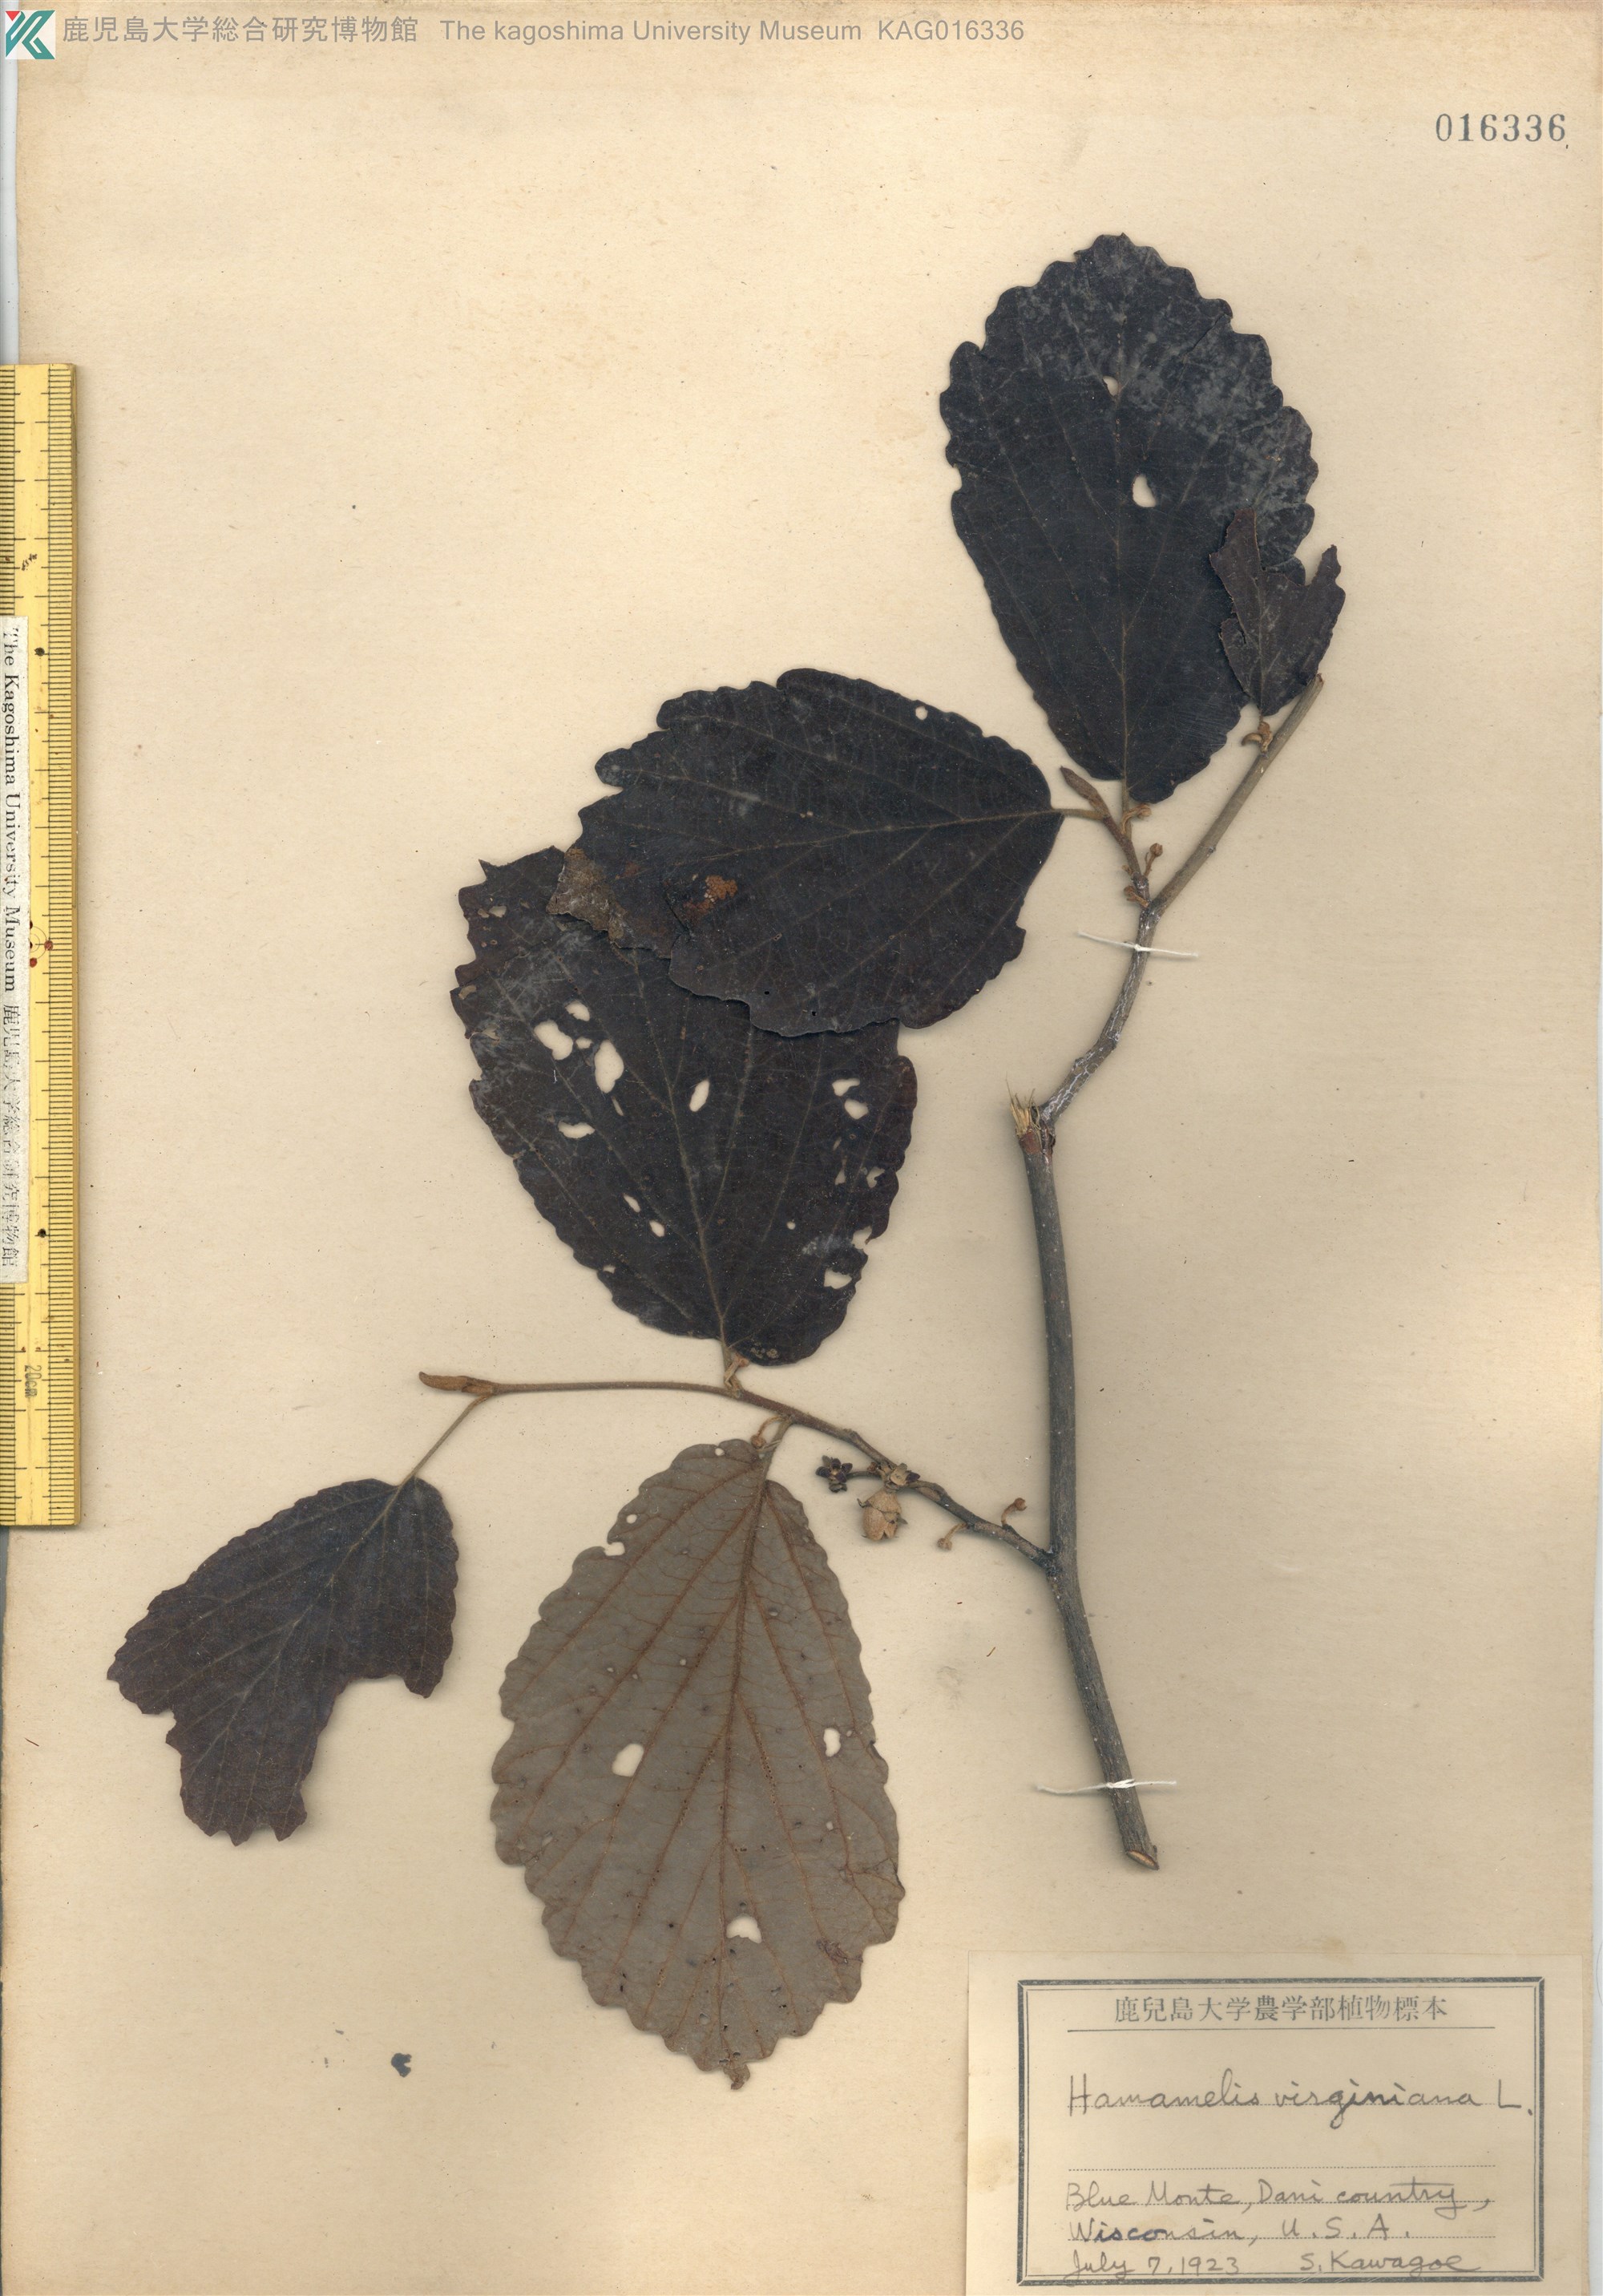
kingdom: Plantae
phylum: Tracheophyta
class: Magnoliopsida
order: Saxifragales
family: Hamamelidaceae
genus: Hamamelis
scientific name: Hamamelis virginiana
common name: Witch-hazel
